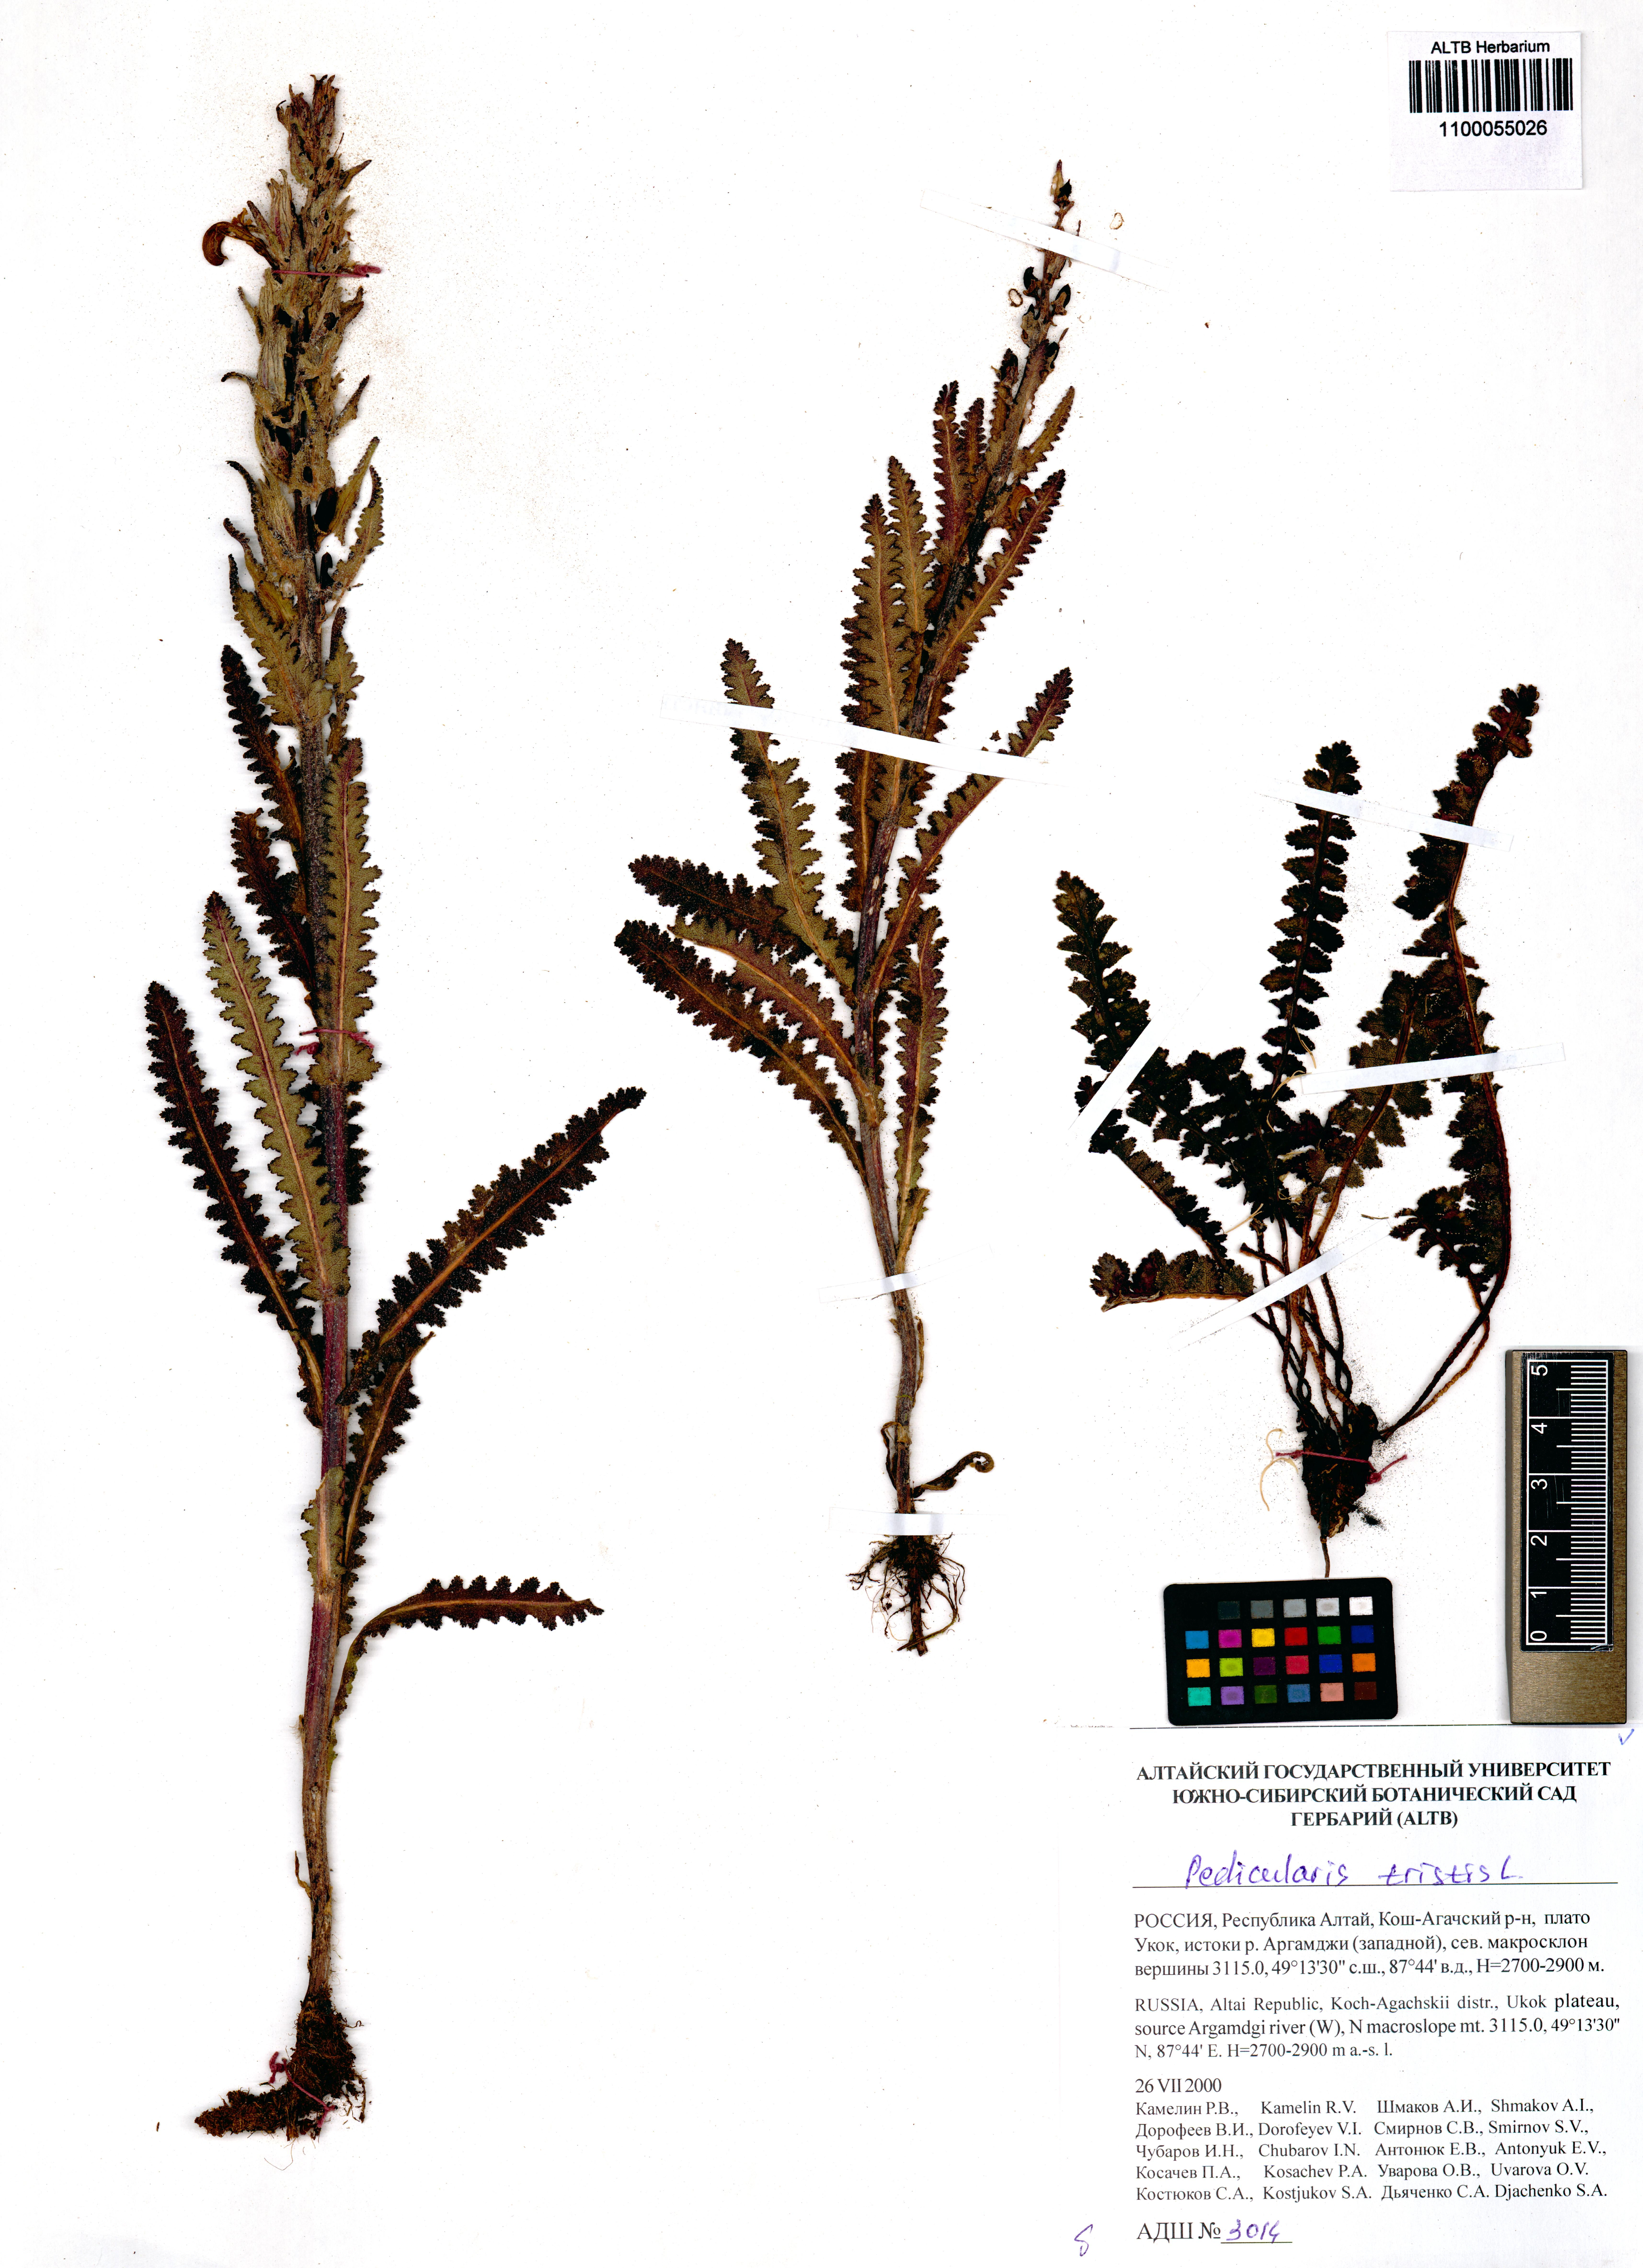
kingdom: Plantae
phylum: Tracheophyta
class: Magnoliopsida
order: Lamiales
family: Orobanchaceae
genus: Pedicularis
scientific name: Pedicularis tristis
